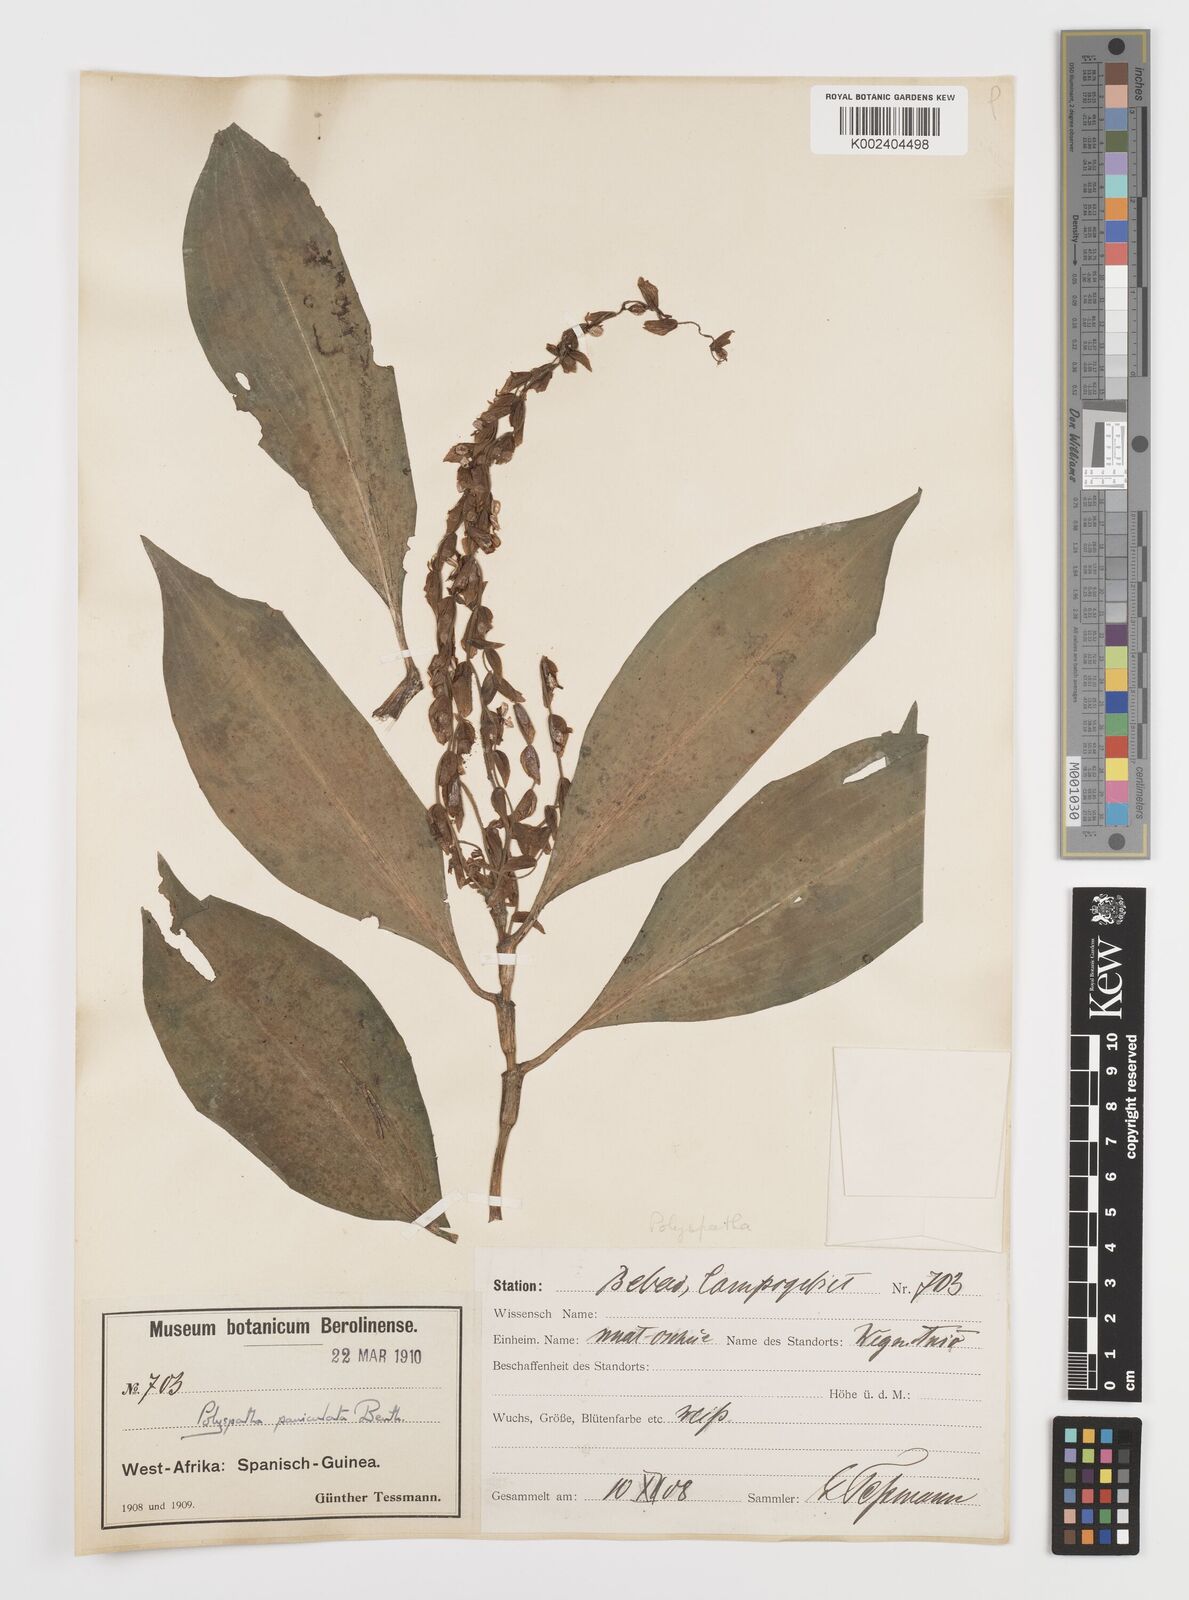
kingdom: Plantae
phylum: Tracheophyta
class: Liliopsida
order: Commelinales
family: Commelinaceae
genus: Polyspatha
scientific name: Polyspatha paniculata
